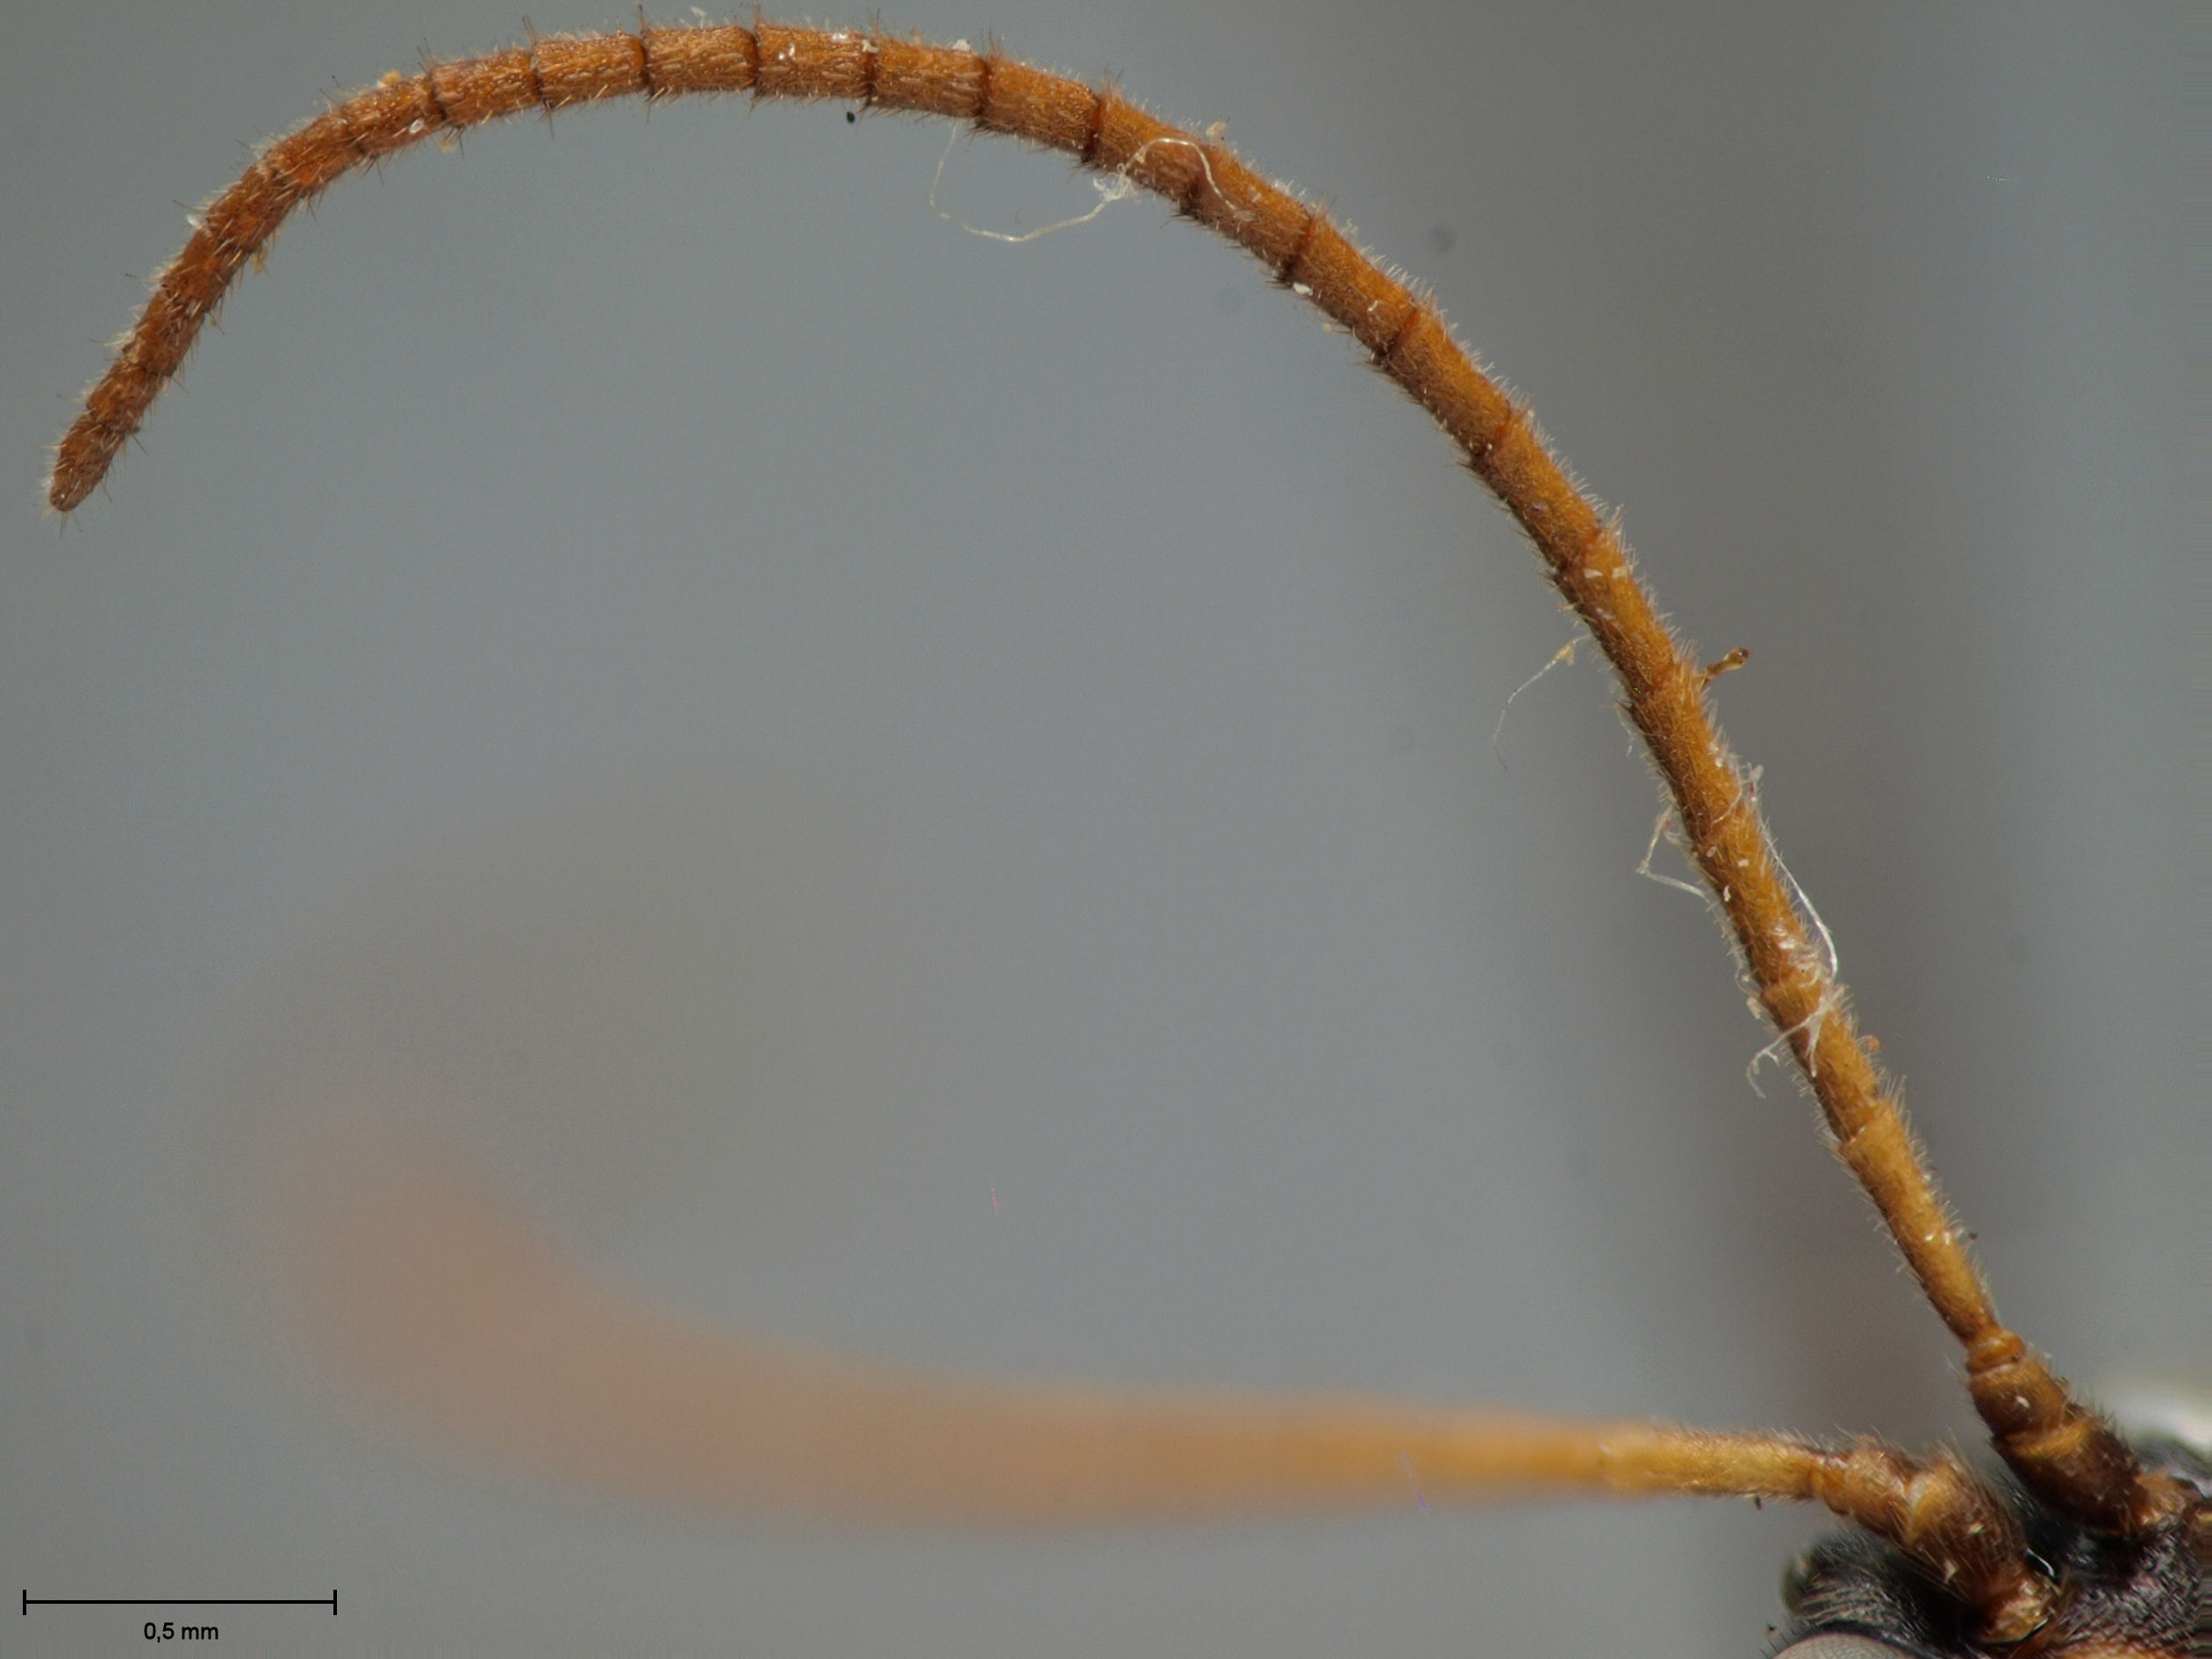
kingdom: Animalia
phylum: Arthropoda
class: Insecta
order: Hymenoptera
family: Ichneumonidae
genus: Ctenochira
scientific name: Ctenochira flavicauda
